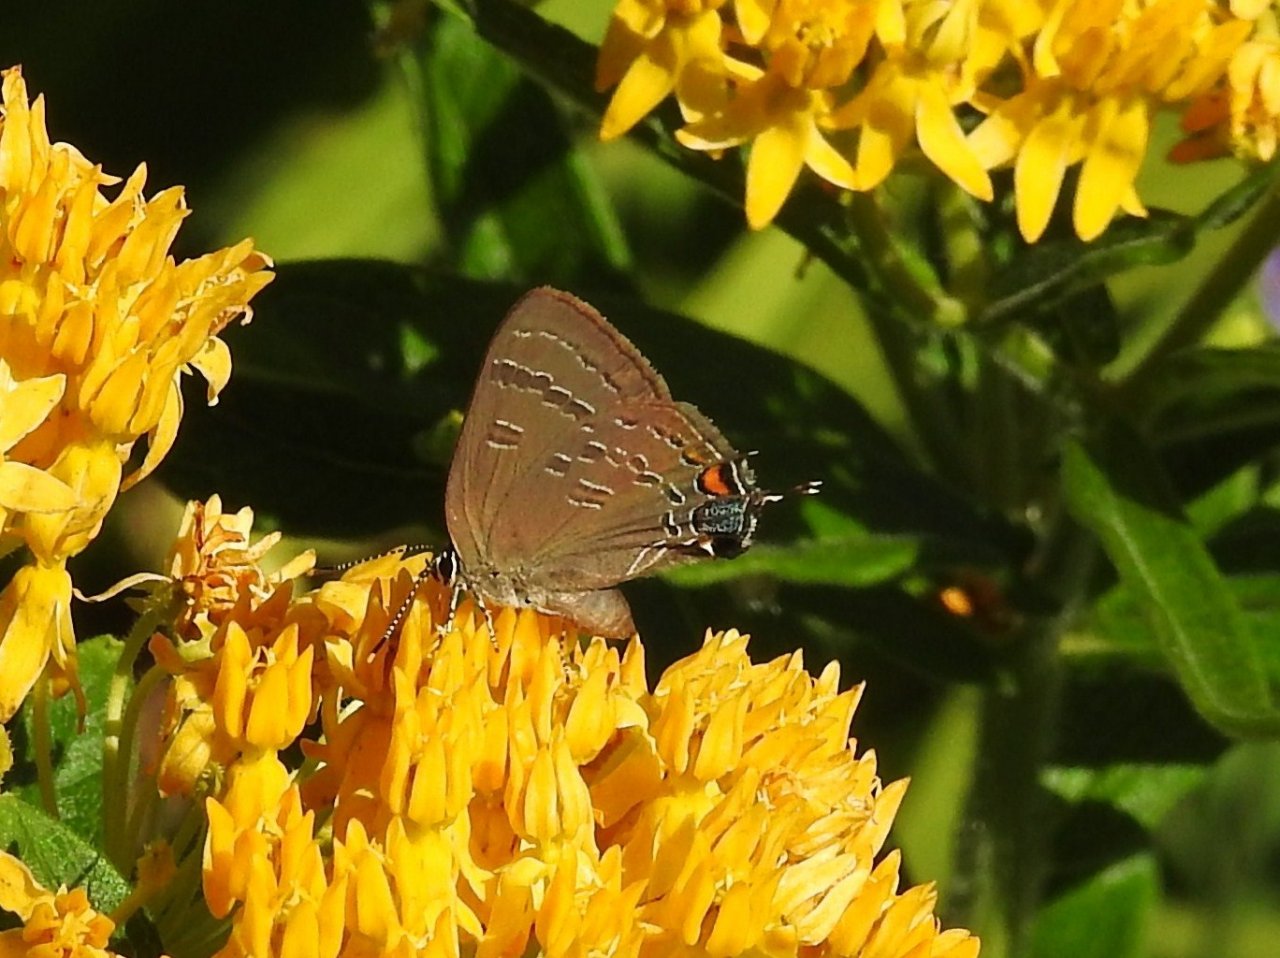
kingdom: Animalia
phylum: Arthropoda
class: Insecta
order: Lepidoptera
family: Lycaenidae
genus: Satyrium
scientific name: Satyrium calanus
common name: Banded Hairstreak
